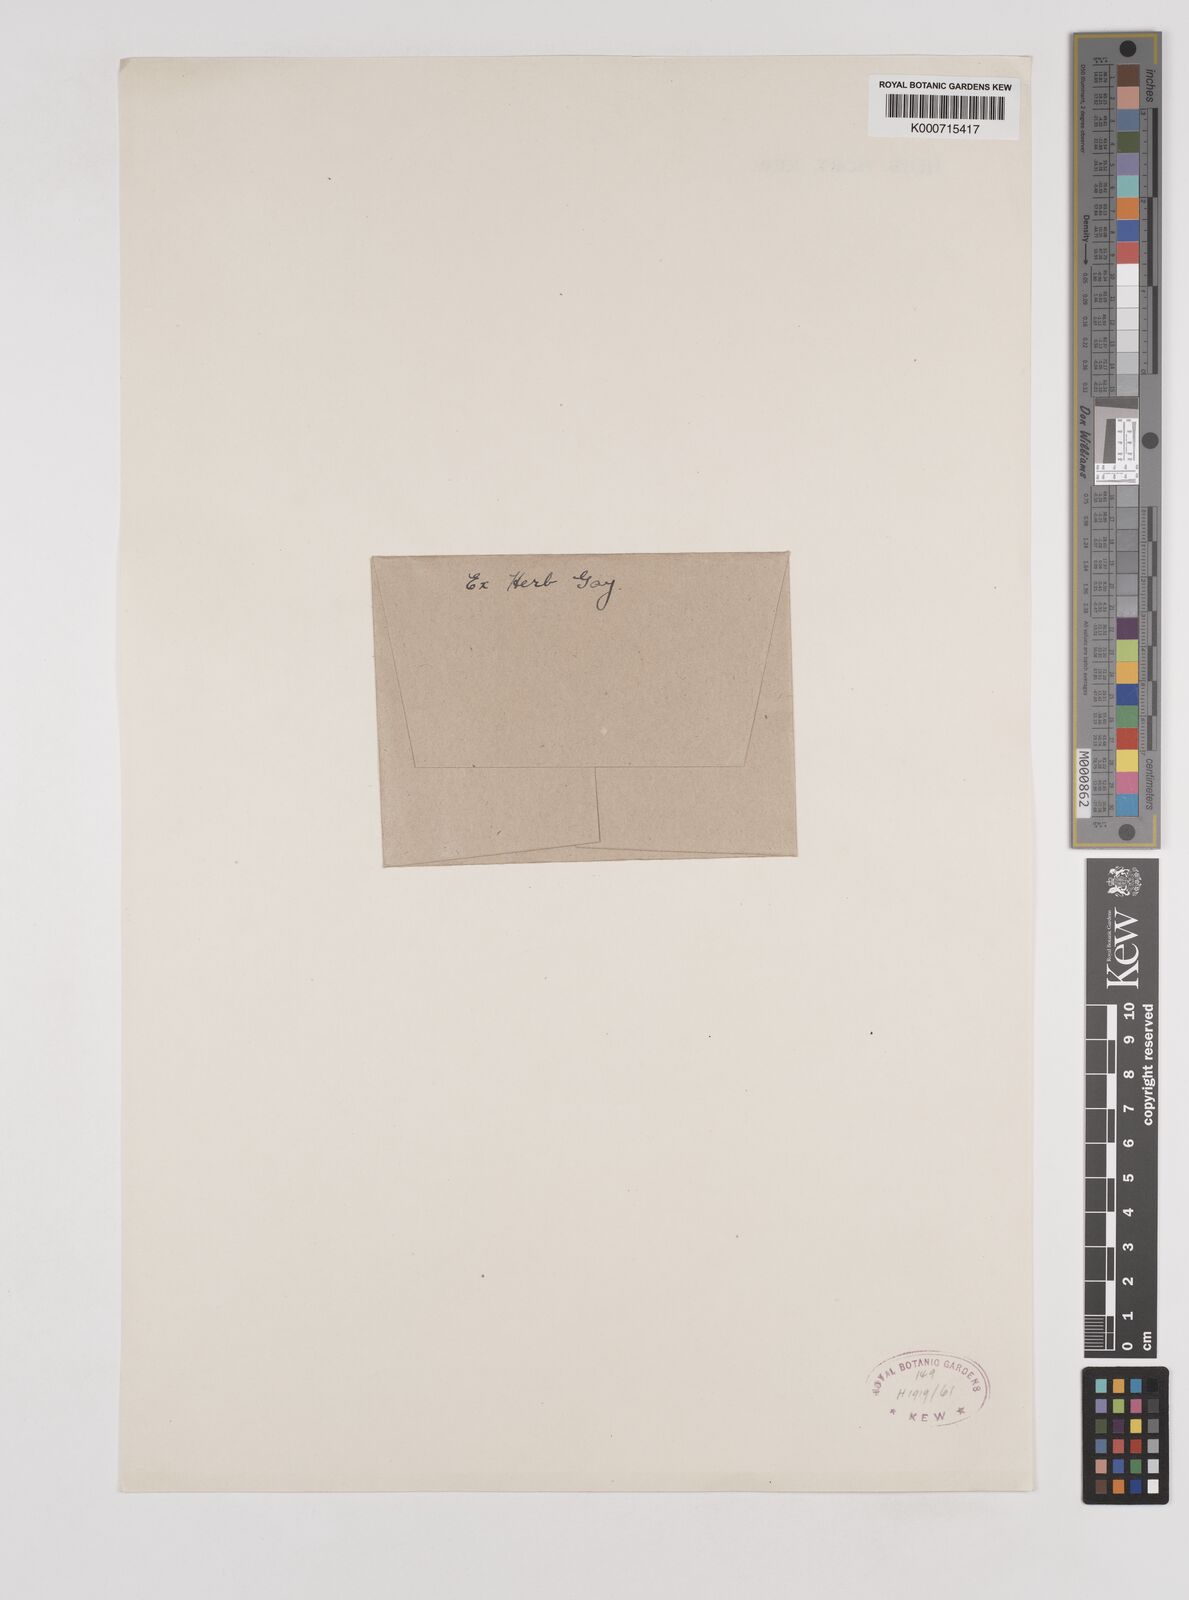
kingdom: Plantae
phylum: Tracheophyta
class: Liliopsida
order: Poales
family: Poaceae
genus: Rytidosperma
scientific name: Rytidosperma semiannulare
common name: Tasmanian wallaby grass
